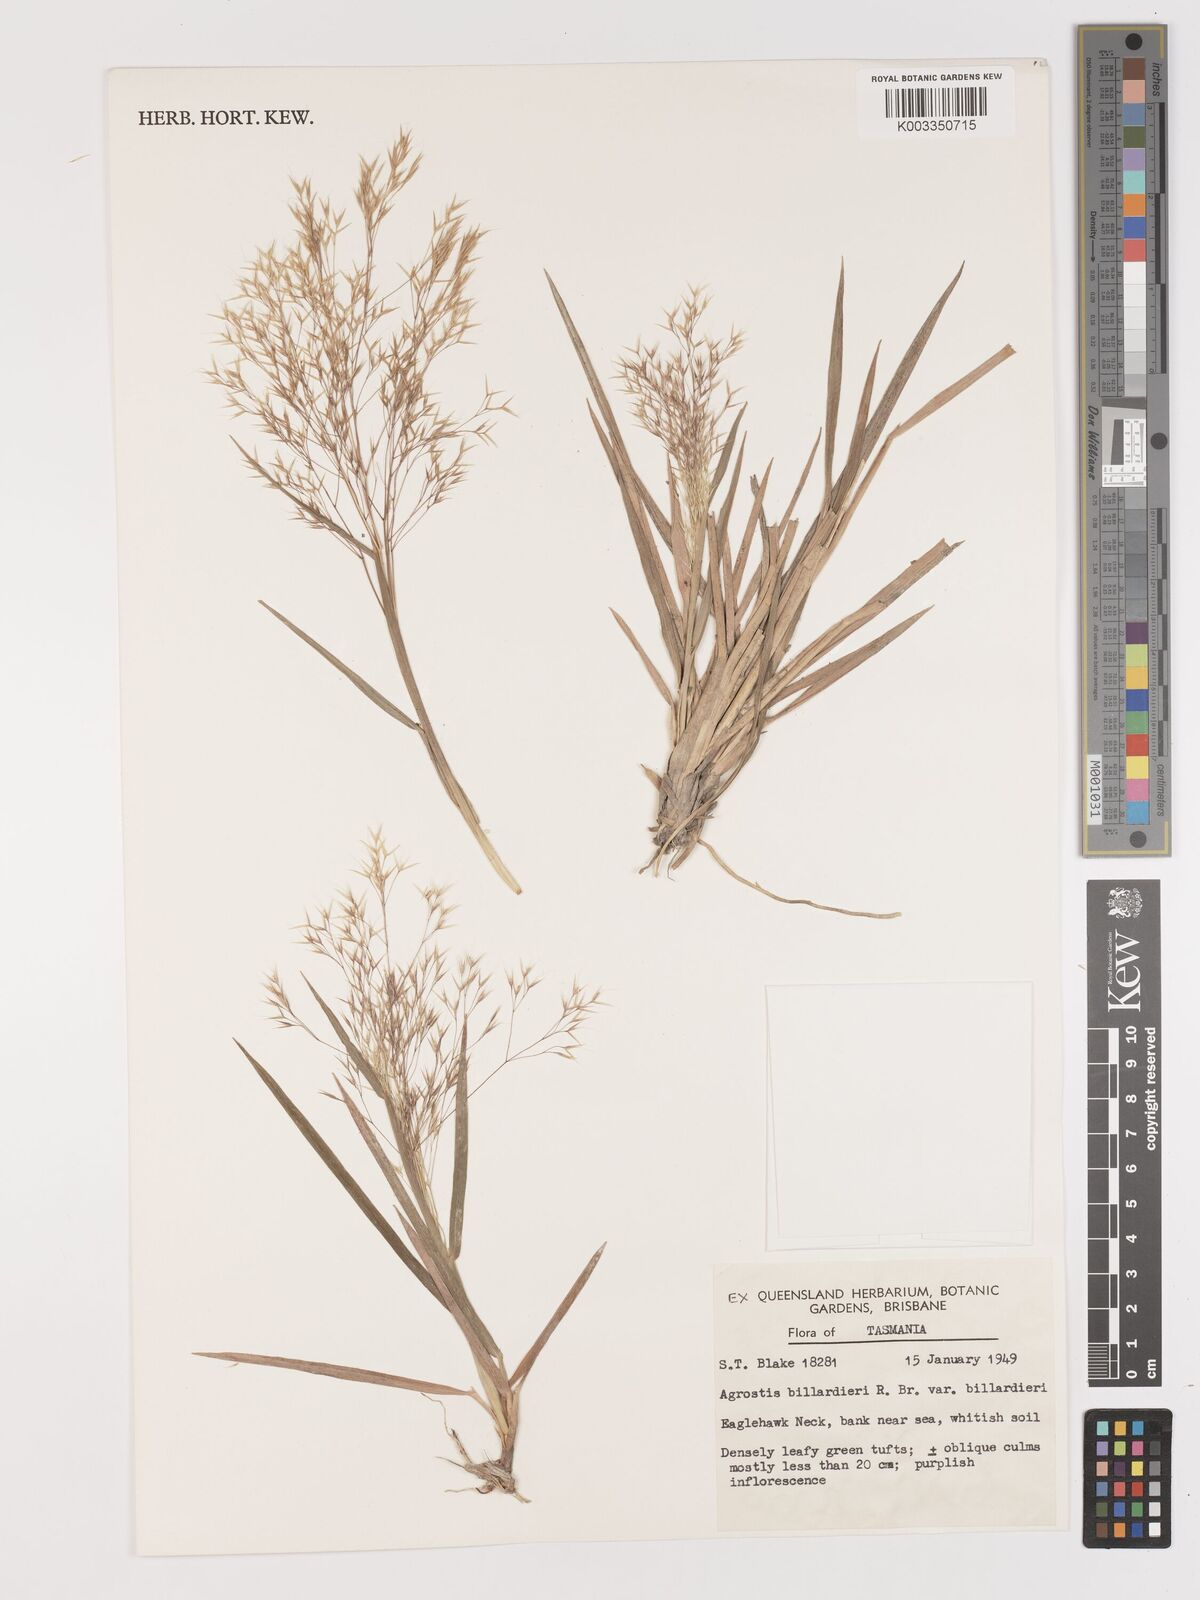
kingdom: Plantae
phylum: Tracheophyta
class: Liliopsida
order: Poales
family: Poaceae
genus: Lachnagrostis
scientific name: Lachnagrostis billardierei
